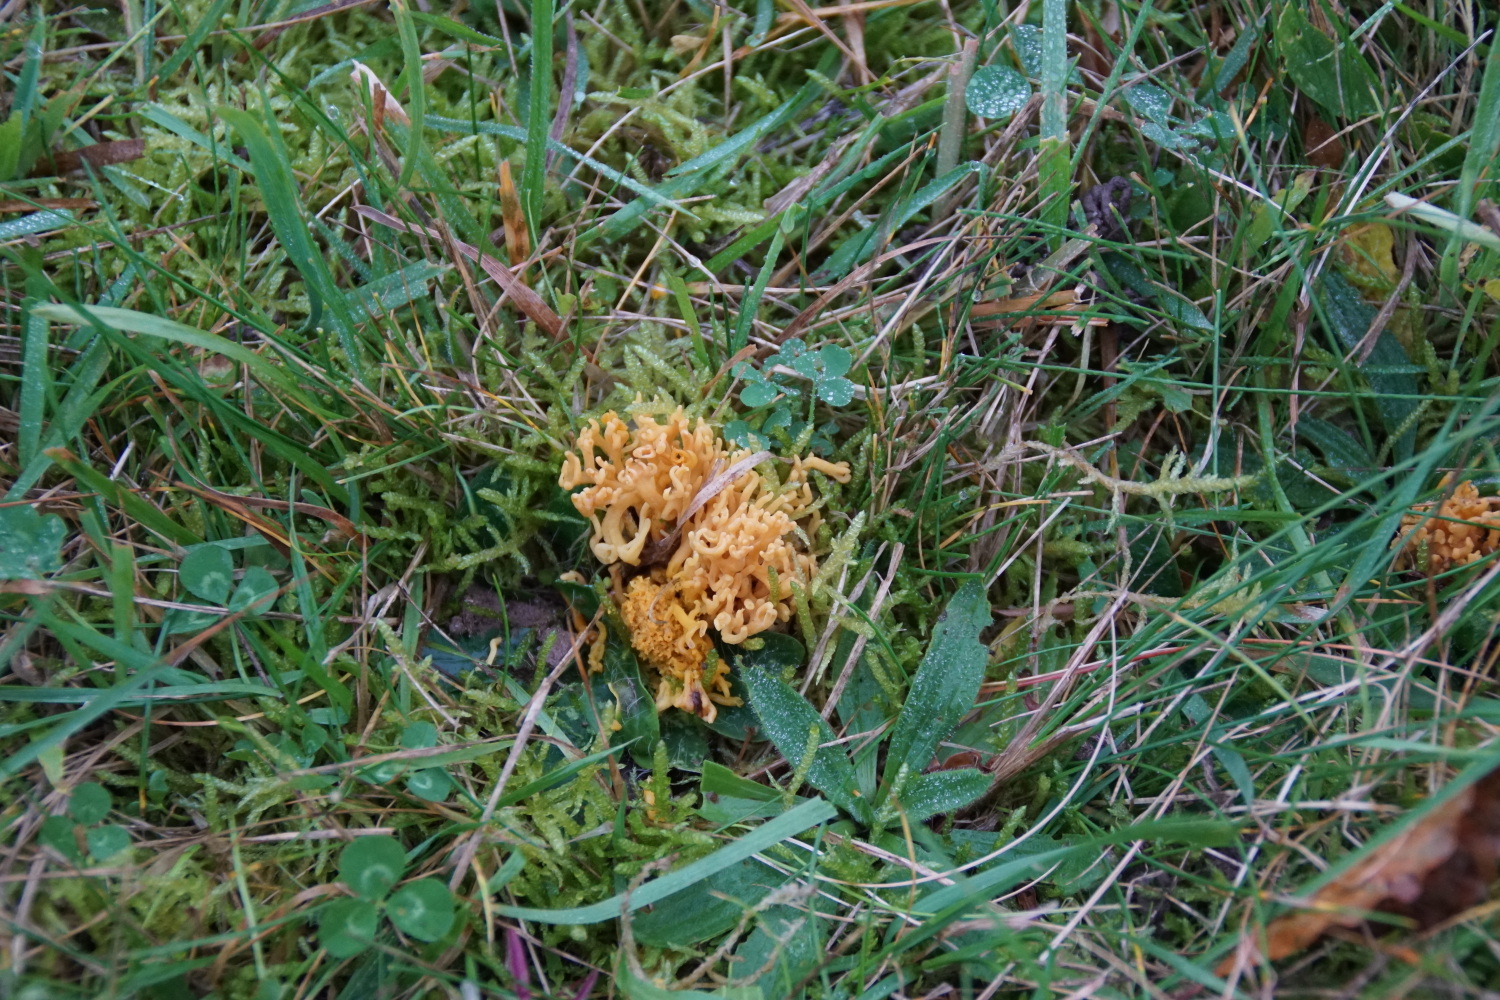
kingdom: Fungi
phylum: Basidiomycota
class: Agaricomycetes
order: Agaricales
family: Clavariaceae
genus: Clavulinopsis
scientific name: Clavulinopsis corniculata
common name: eng-køllesvamp
